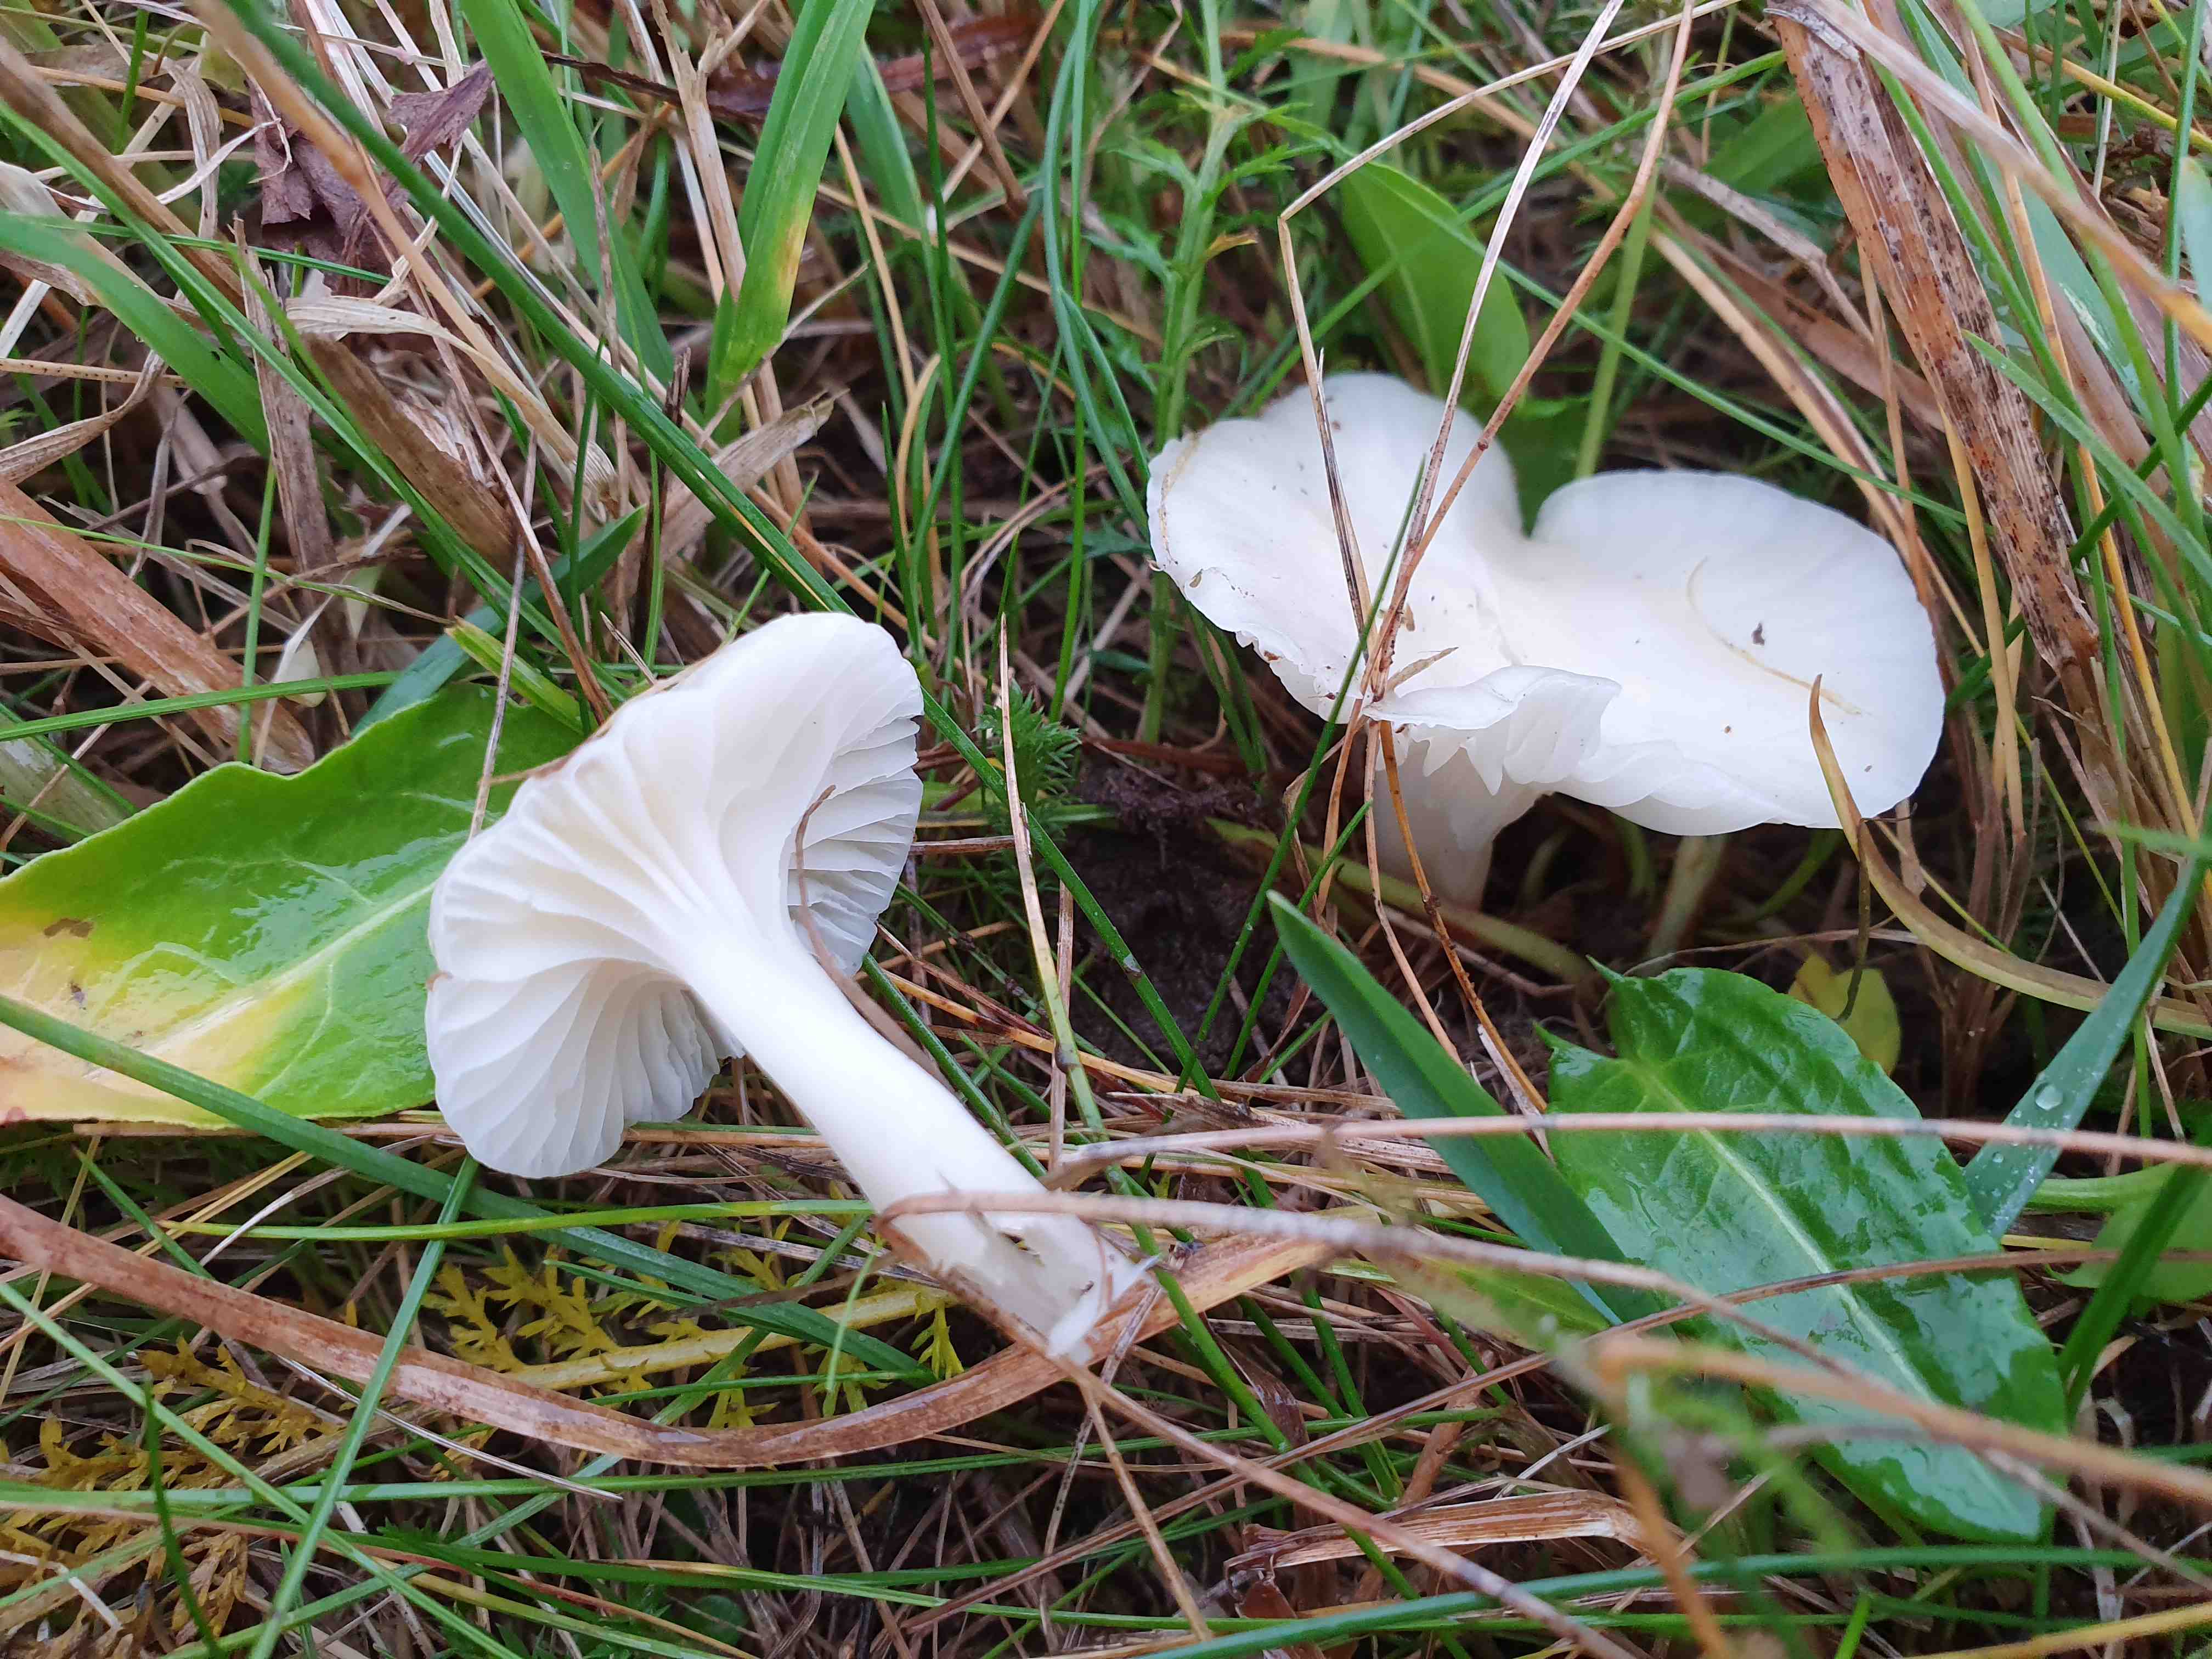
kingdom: Fungi
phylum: Basidiomycota
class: Agaricomycetes
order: Agaricales
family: Hygrophoraceae
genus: Cuphophyllus
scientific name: Cuphophyllus virgineus
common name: snehvid vokshat
